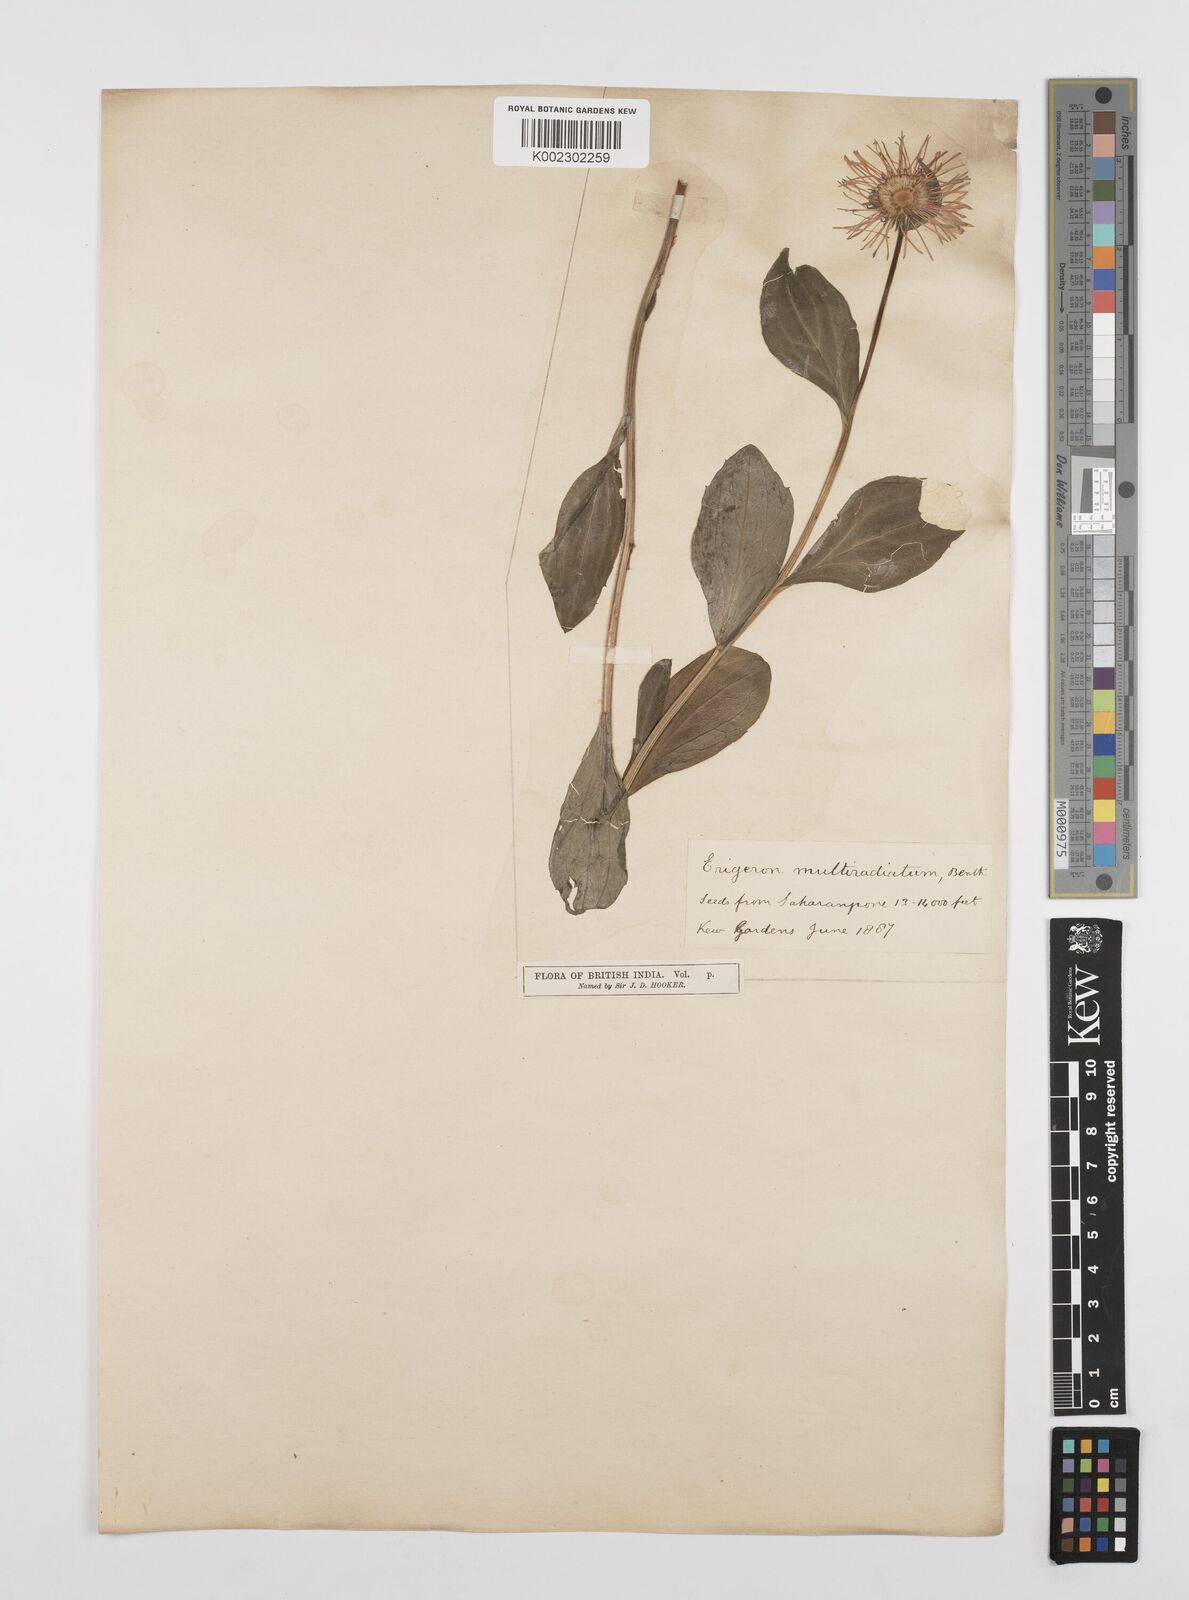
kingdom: Plantae
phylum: Tracheophyta
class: Magnoliopsida
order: Asterales
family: Asteraceae
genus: Erigeron
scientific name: Erigeron multiradiatus
